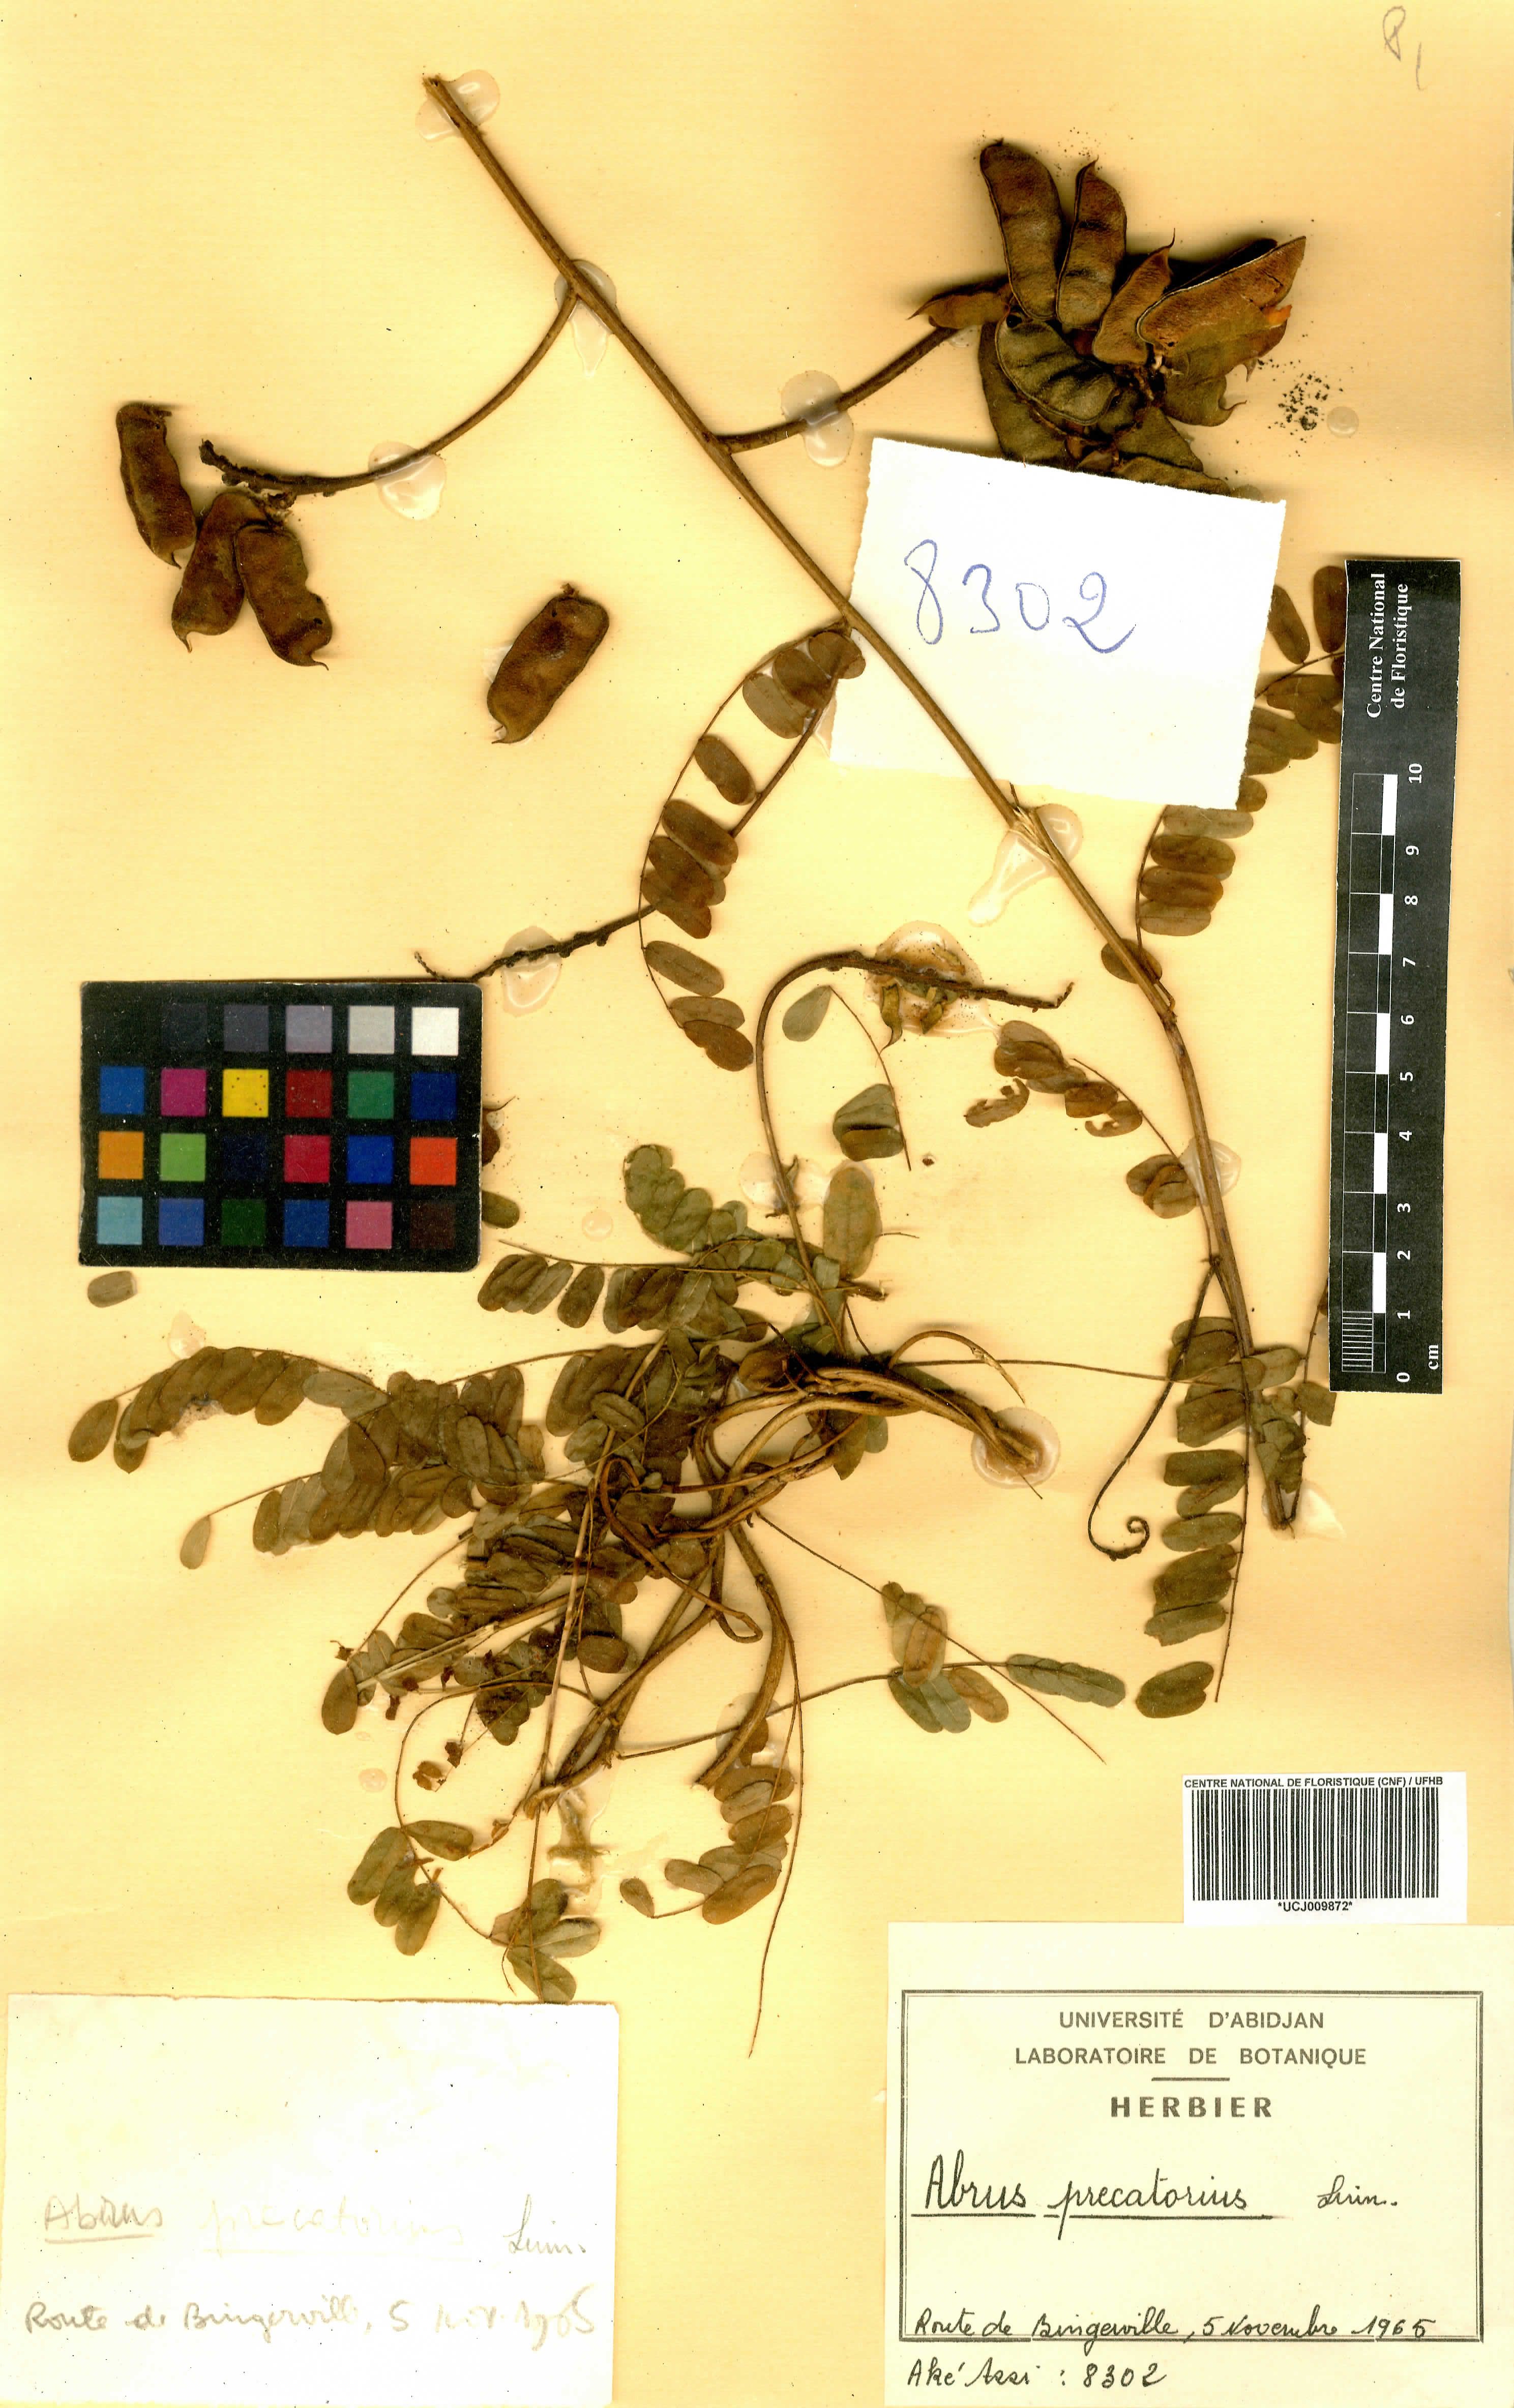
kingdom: Plantae
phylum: Tracheophyta
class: Magnoliopsida
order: Fabales
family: Fabaceae
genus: Abrus
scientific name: Abrus precatorius
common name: Rosarypea
